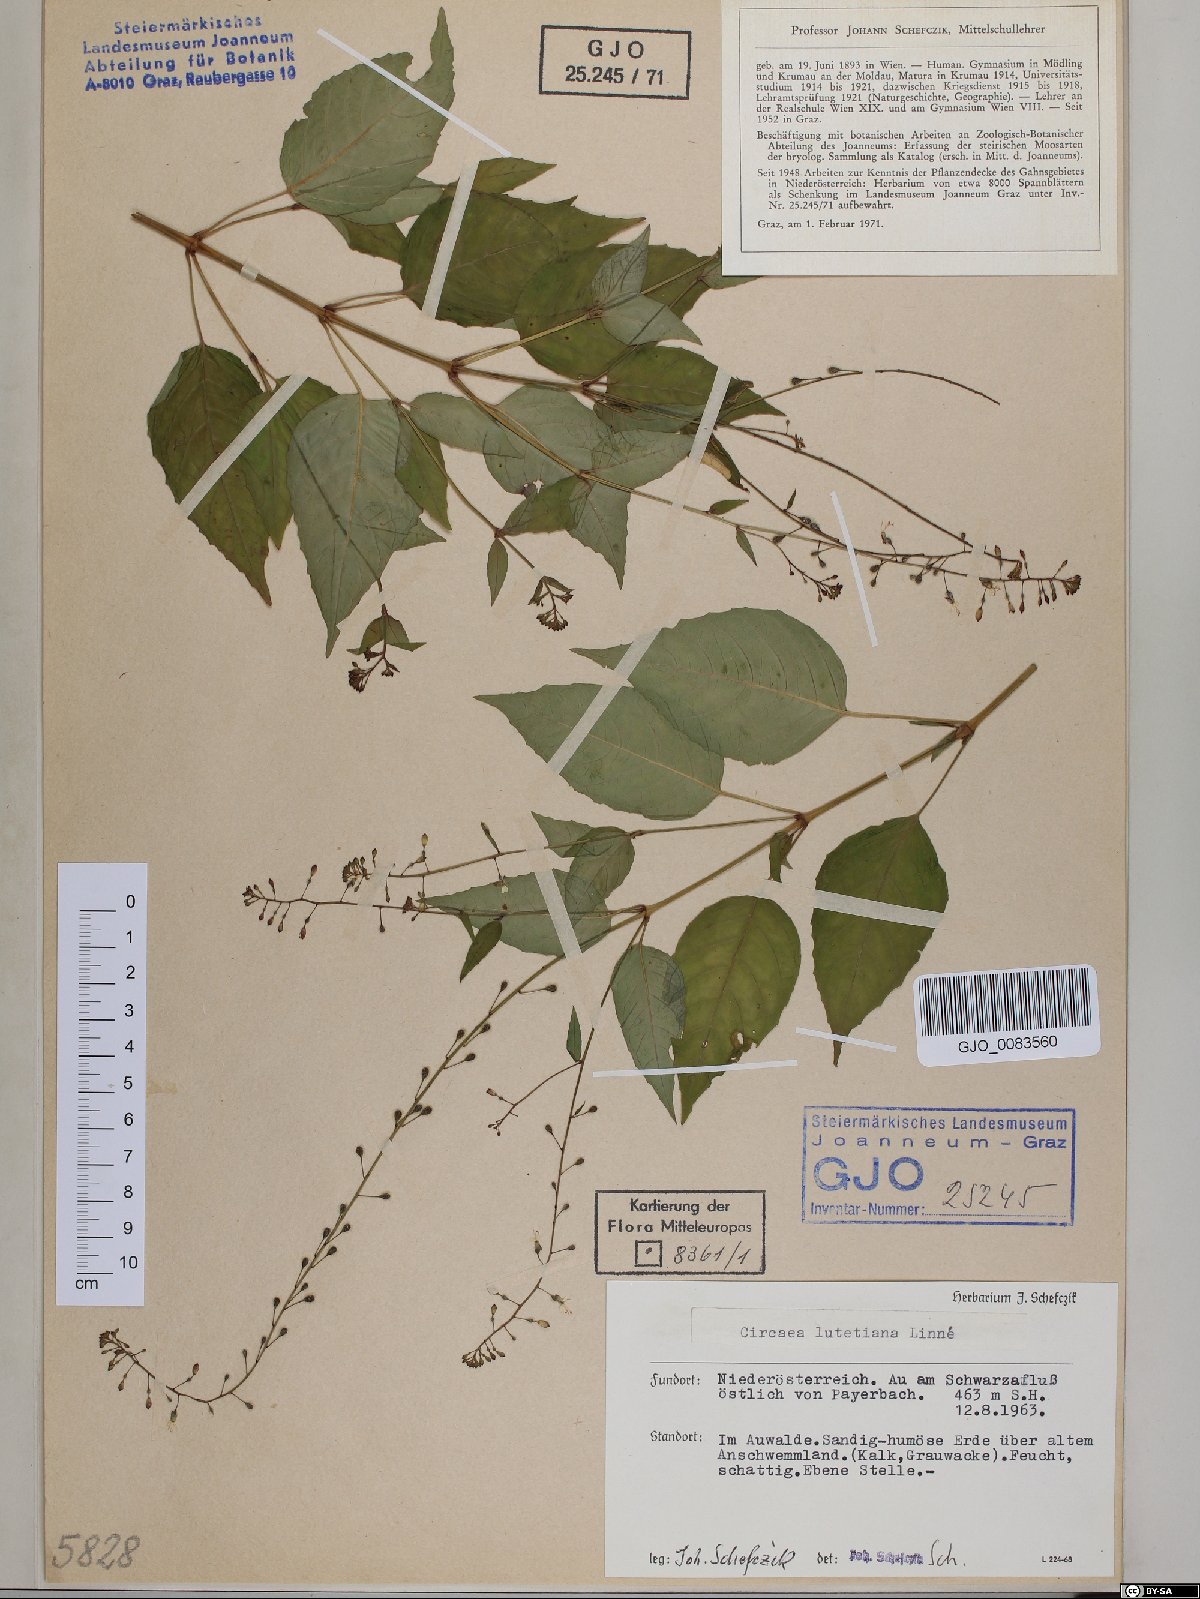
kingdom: Plantae
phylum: Tracheophyta
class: Magnoliopsida
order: Myrtales
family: Onagraceae
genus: Circaea
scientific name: Circaea lutetiana
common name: Enchanter's-nightshade
